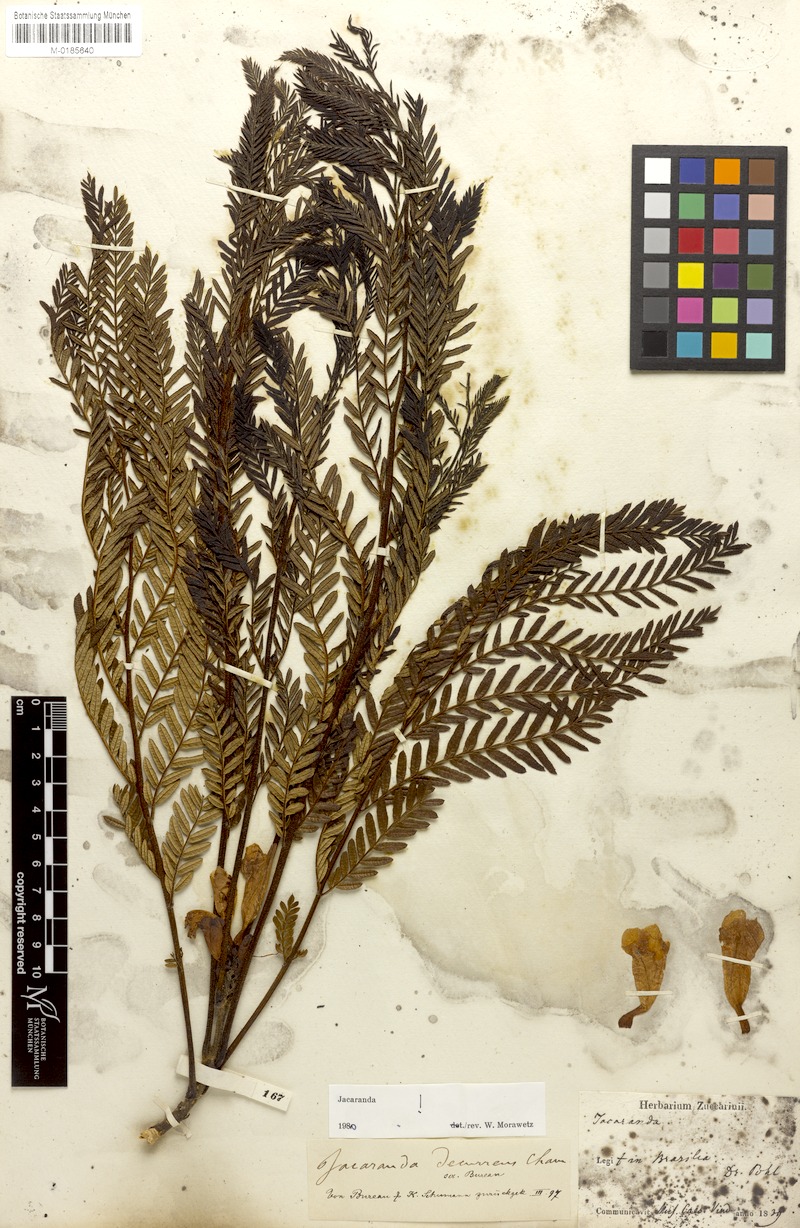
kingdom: Plantae
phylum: Tracheophyta
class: Magnoliopsida
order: Lamiales
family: Bignoniaceae
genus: Jacaranda
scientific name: Jacaranda decurrens
